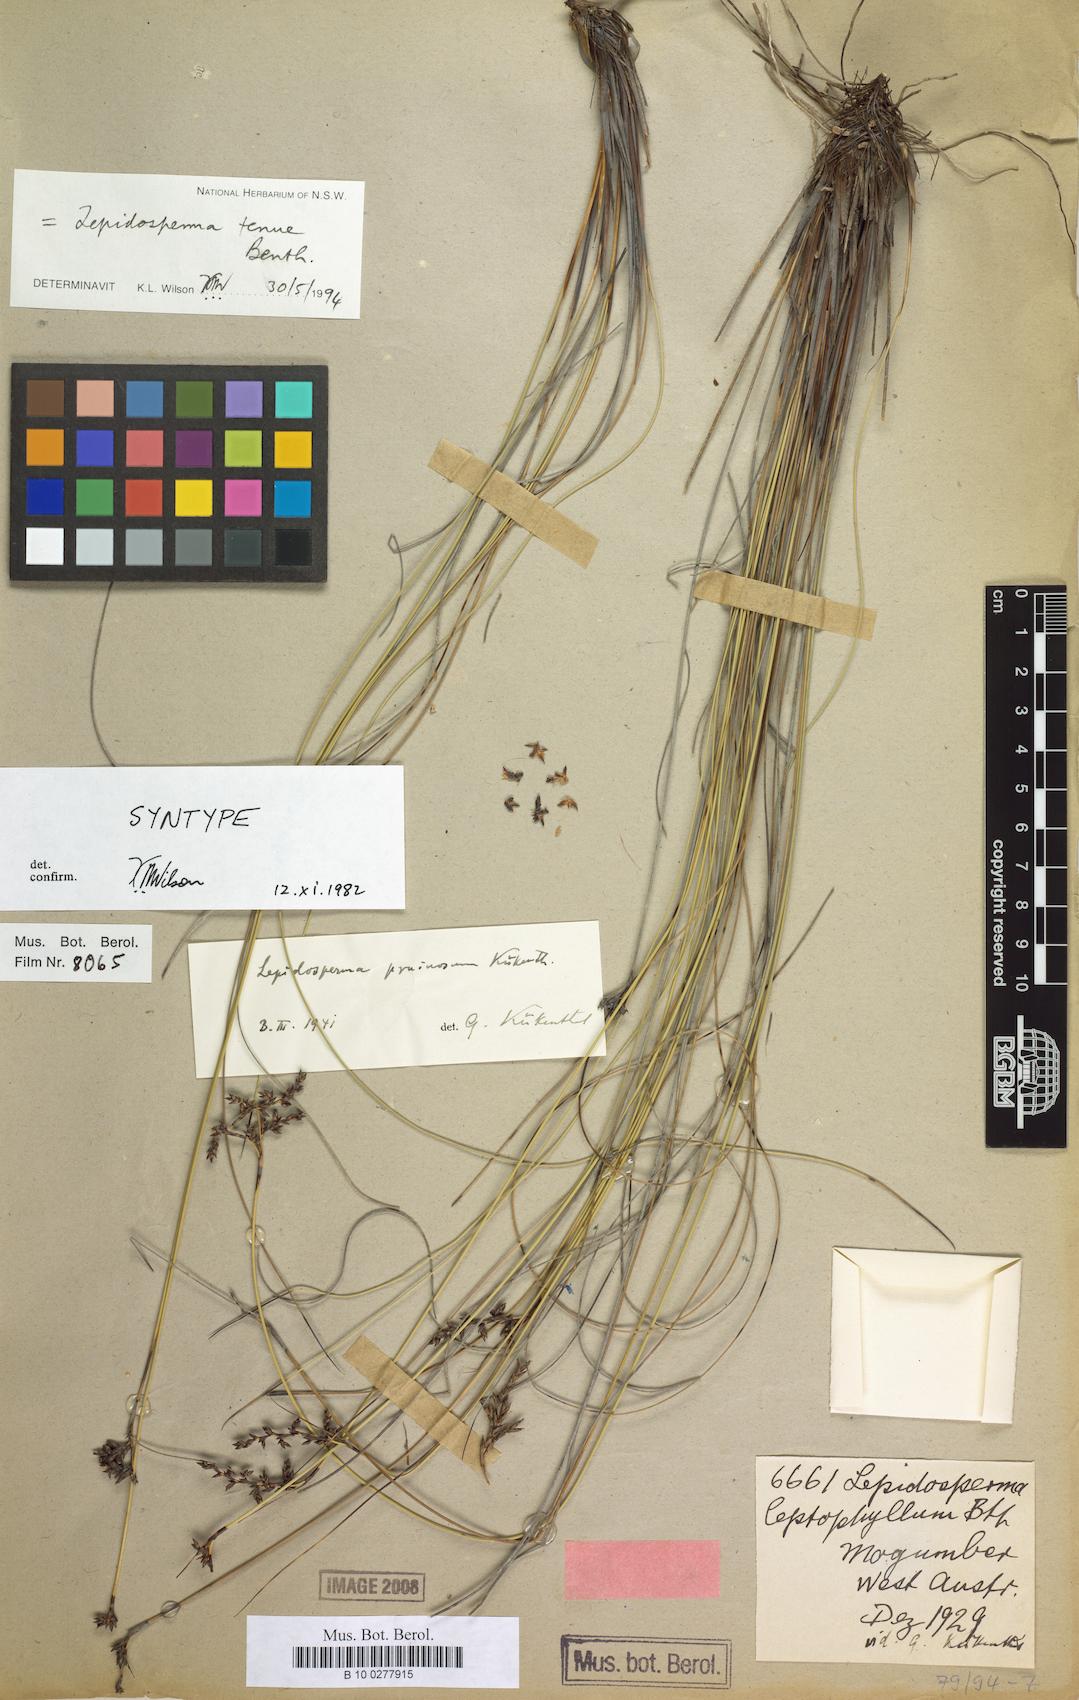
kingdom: Plantae
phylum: Tracheophyta
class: Liliopsida
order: Poales
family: Cyperaceae
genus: Lepidosperma
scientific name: Lepidosperma tenue
